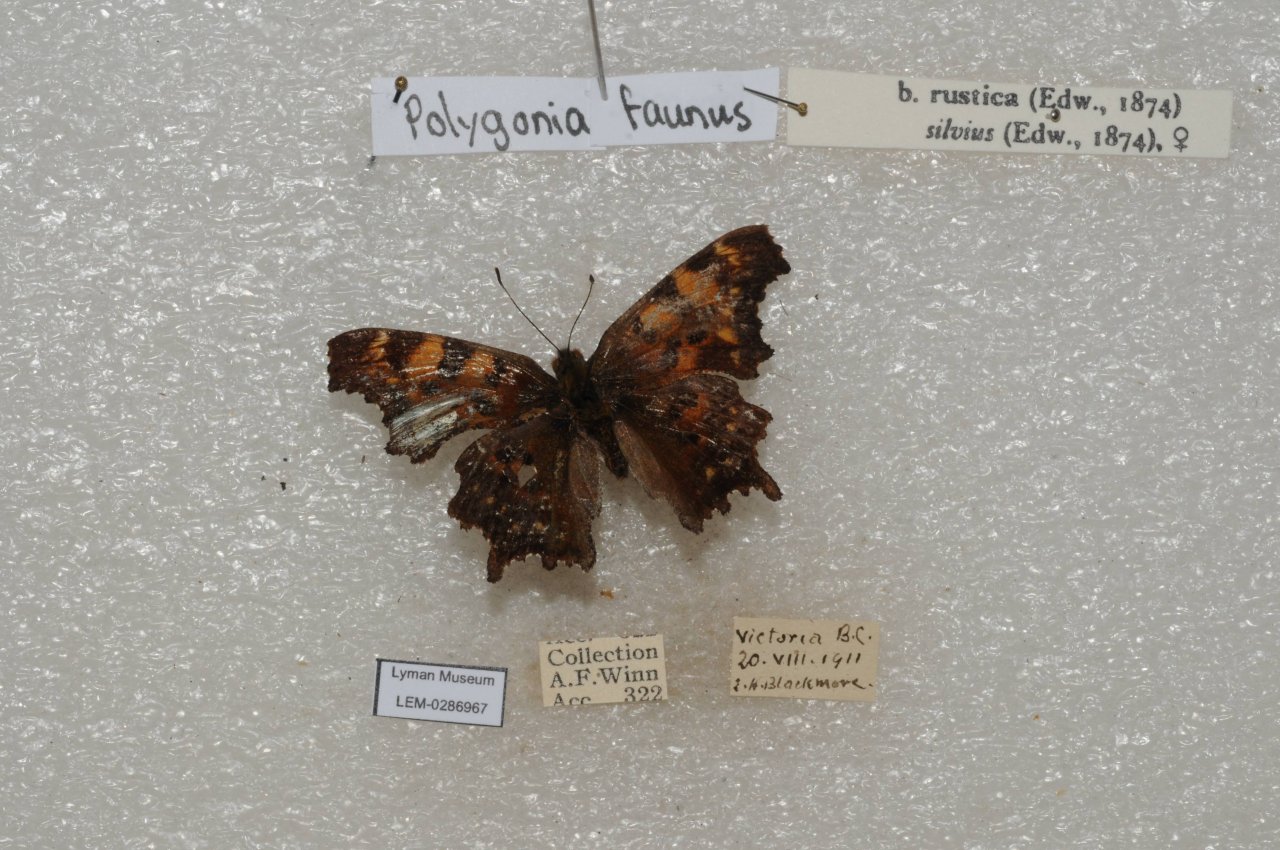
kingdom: Animalia
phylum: Arthropoda
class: Insecta
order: Lepidoptera
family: Nymphalidae
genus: Polygonia
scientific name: Polygonia faunus
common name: Green Comma
